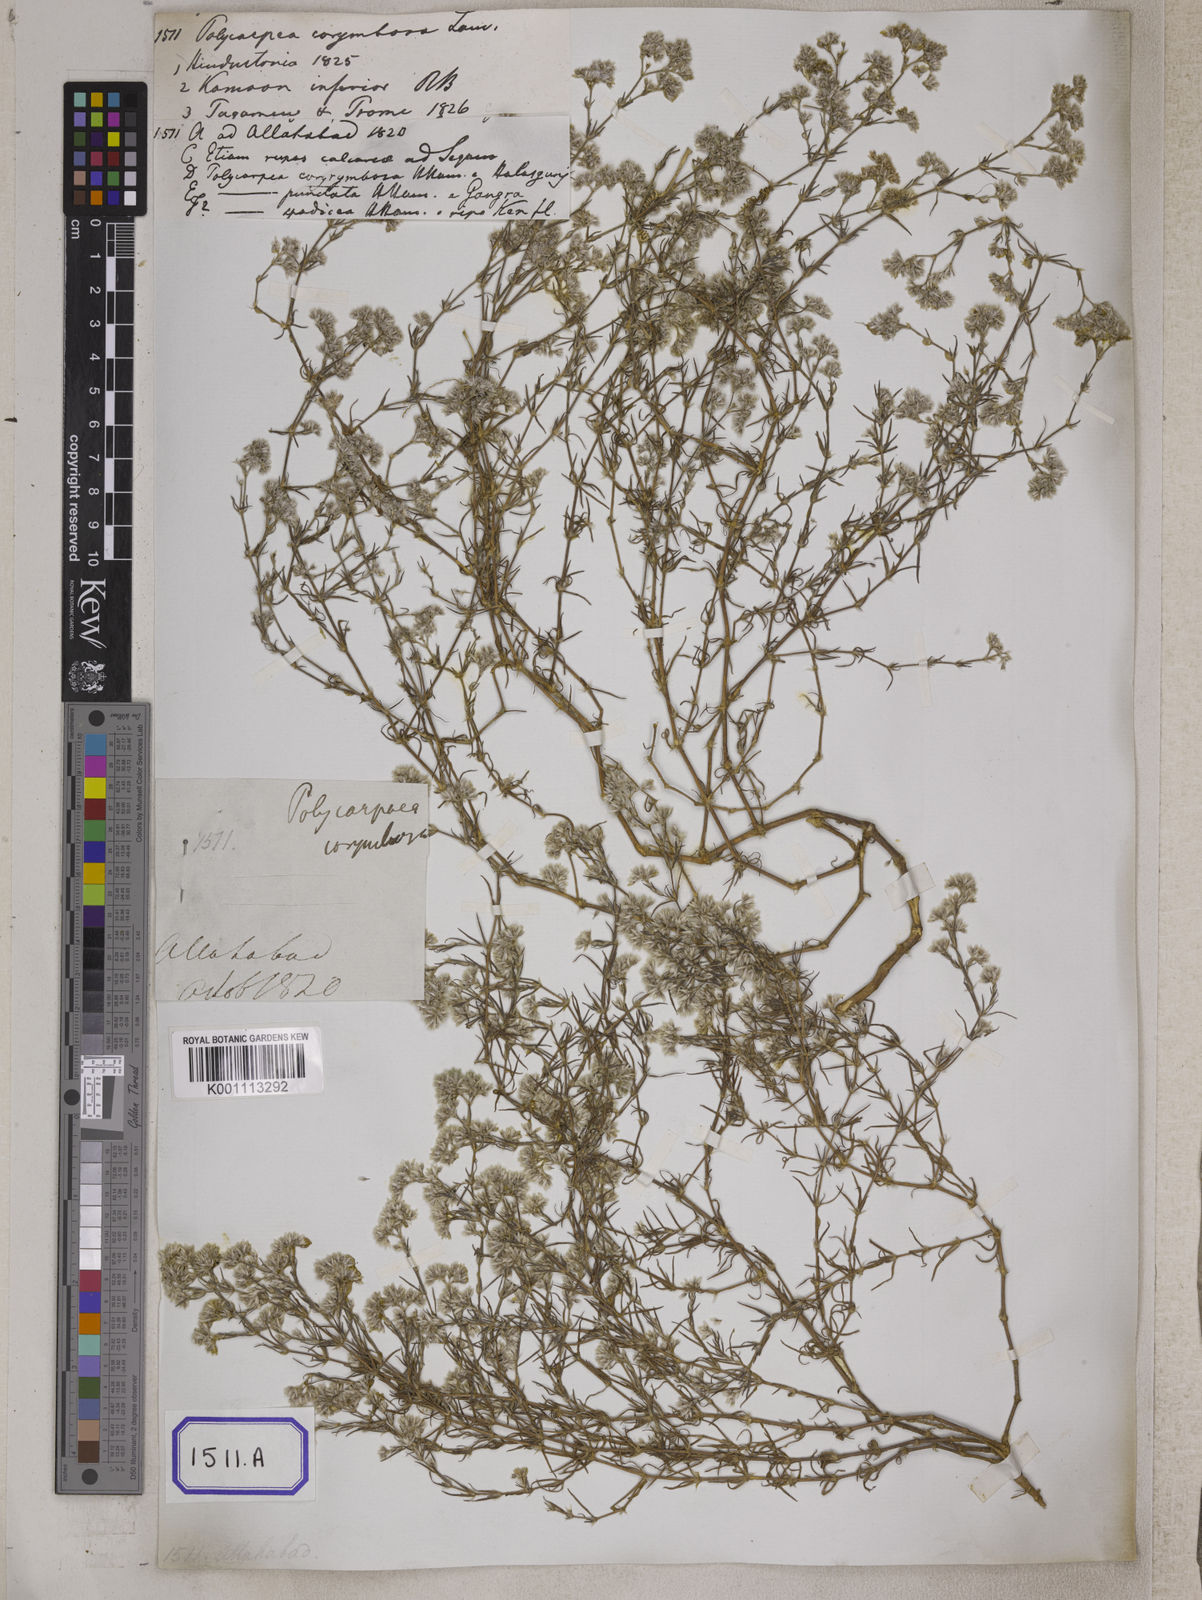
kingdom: Plantae
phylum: Tracheophyta
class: Magnoliopsida
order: Caryophyllales
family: Caryophyllaceae
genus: Polycarpaea
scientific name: Polycarpaea corymbosa
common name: Oldman's cap
